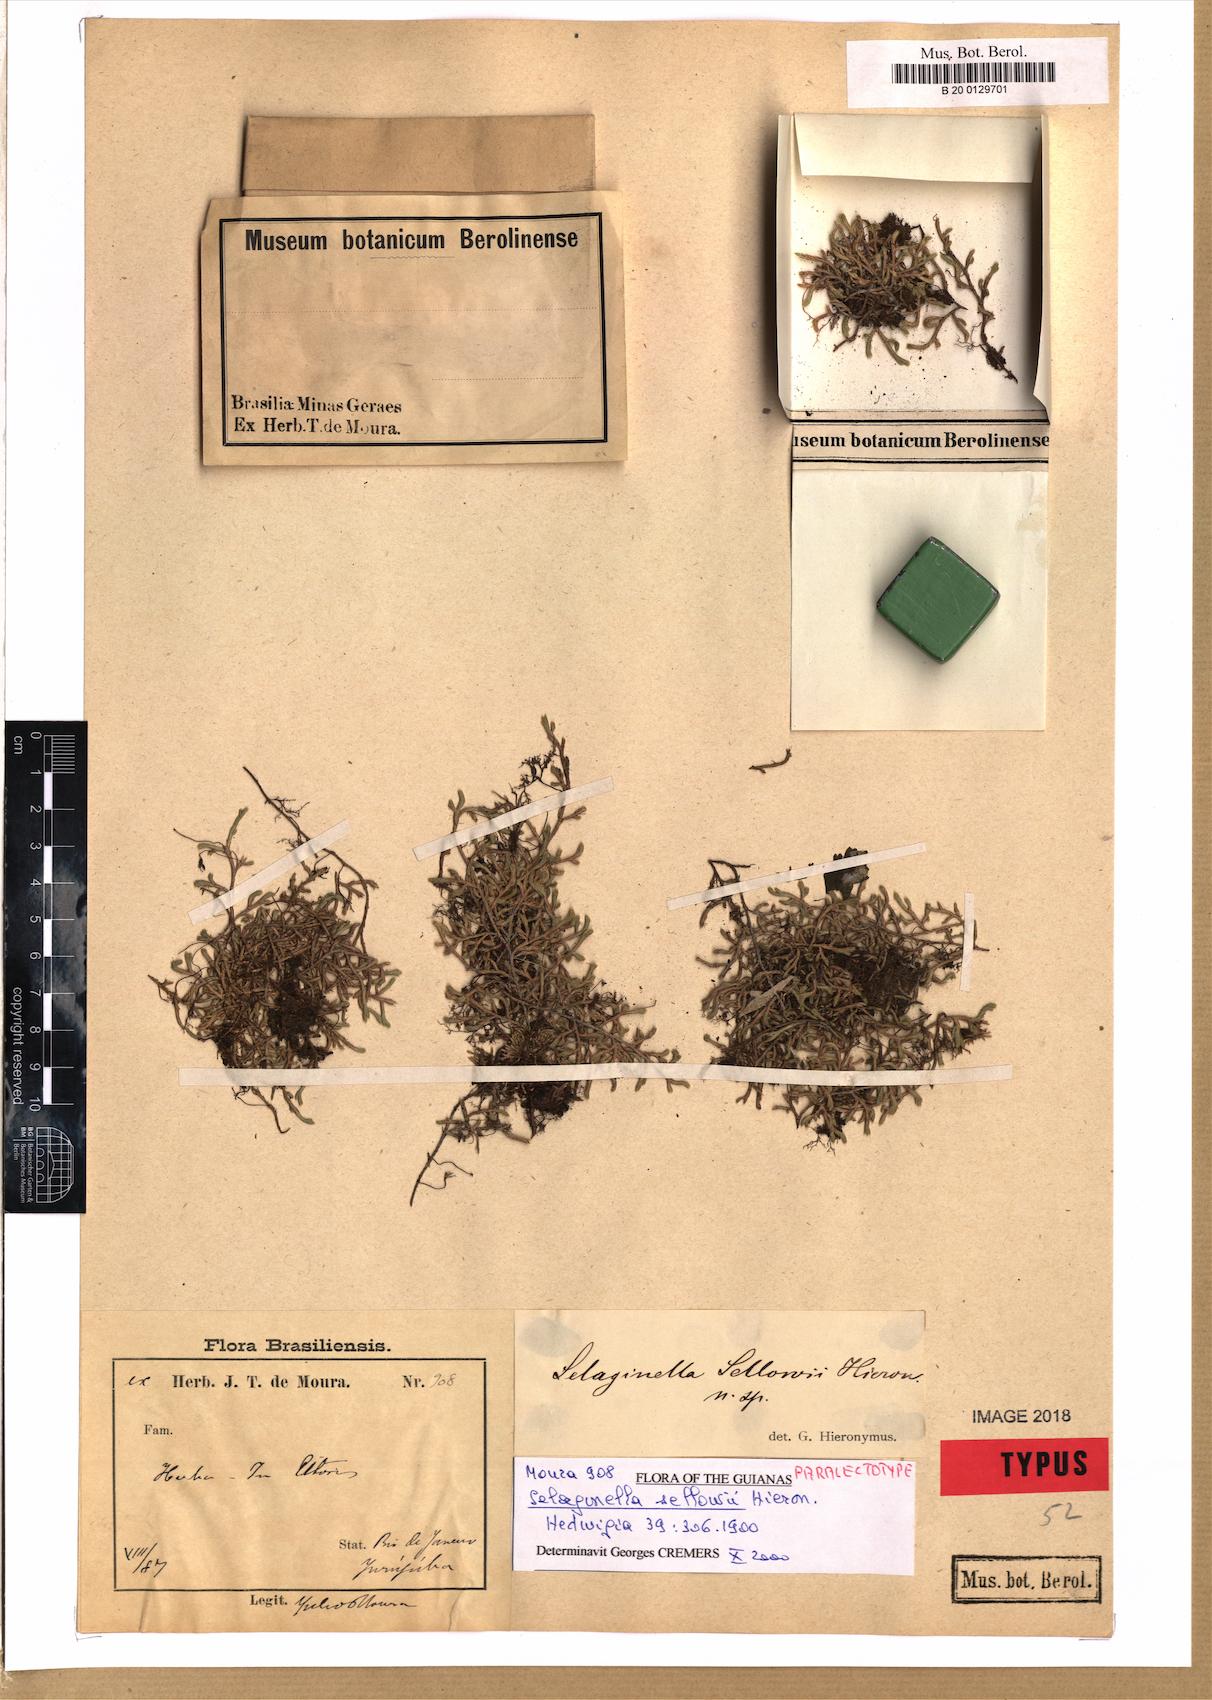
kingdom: Plantae
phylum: Tracheophyta
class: Lycopodiopsida
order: Selaginellales
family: Selaginellaceae
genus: Selaginella
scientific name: Selaginella sellowii
